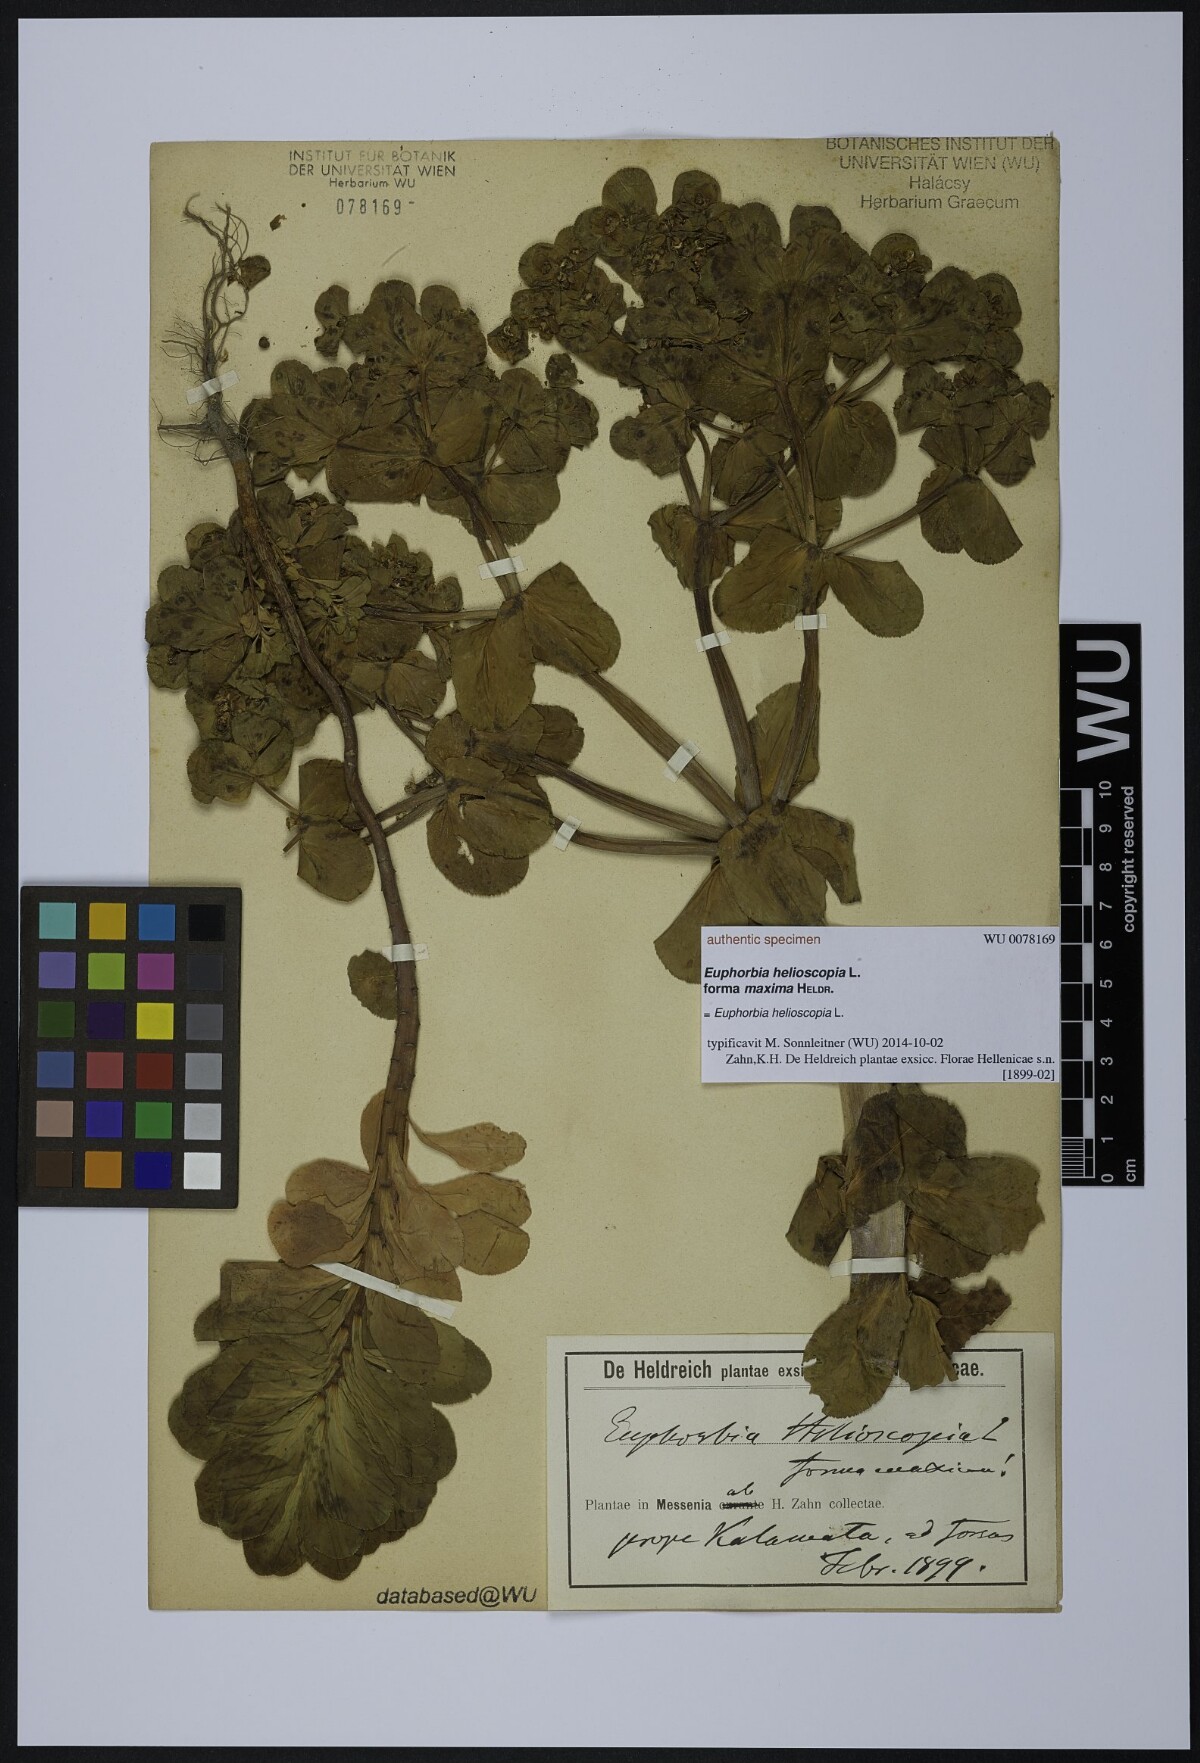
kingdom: Plantae
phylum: Tracheophyta
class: Magnoliopsida
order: Malpighiales
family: Euphorbiaceae
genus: Euphorbia
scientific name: Euphorbia helioscopia
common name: Sun spurge
